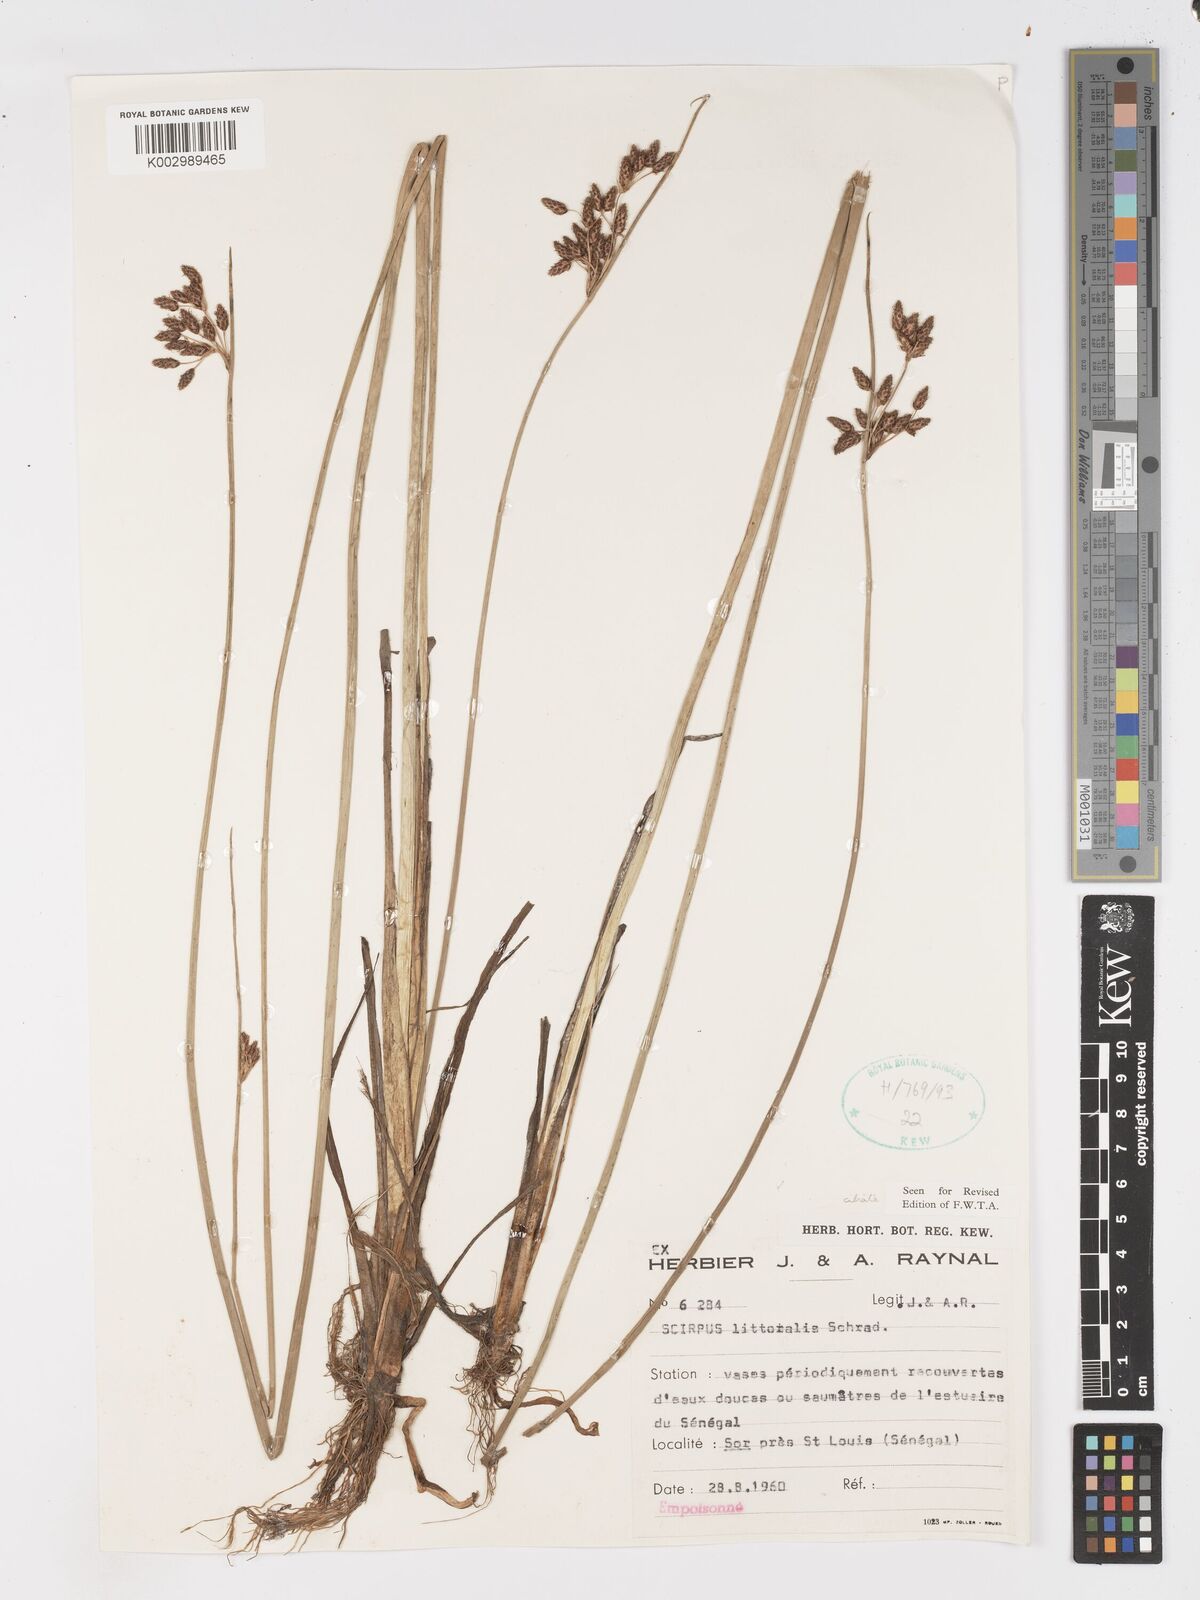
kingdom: Plantae
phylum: Tracheophyta
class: Liliopsida
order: Poales
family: Cyperaceae
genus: Schoenoplectus
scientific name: Schoenoplectus litoralis
